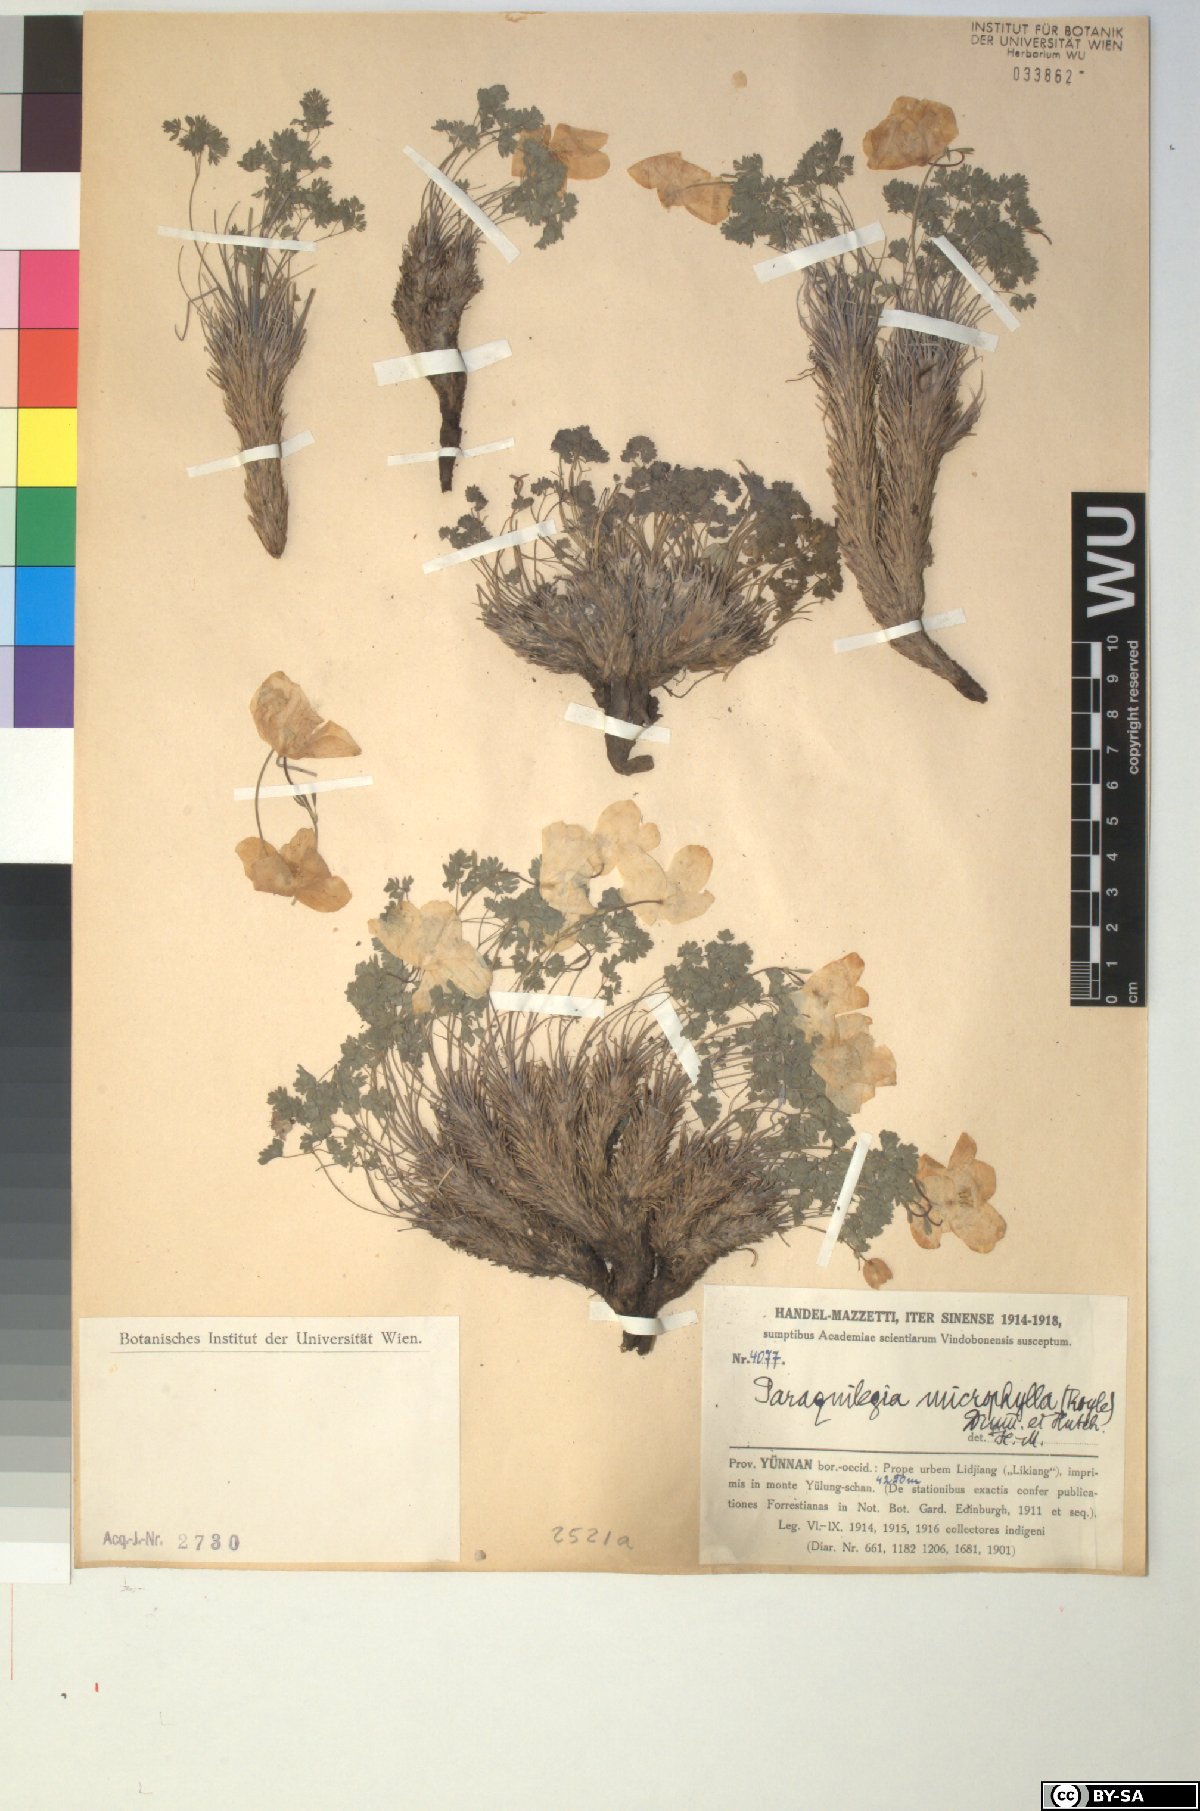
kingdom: Plantae
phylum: Tracheophyta
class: Magnoliopsida
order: Ranunculales
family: Ranunculaceae
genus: Paraquilegia
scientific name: Paraquilegia microphylla
